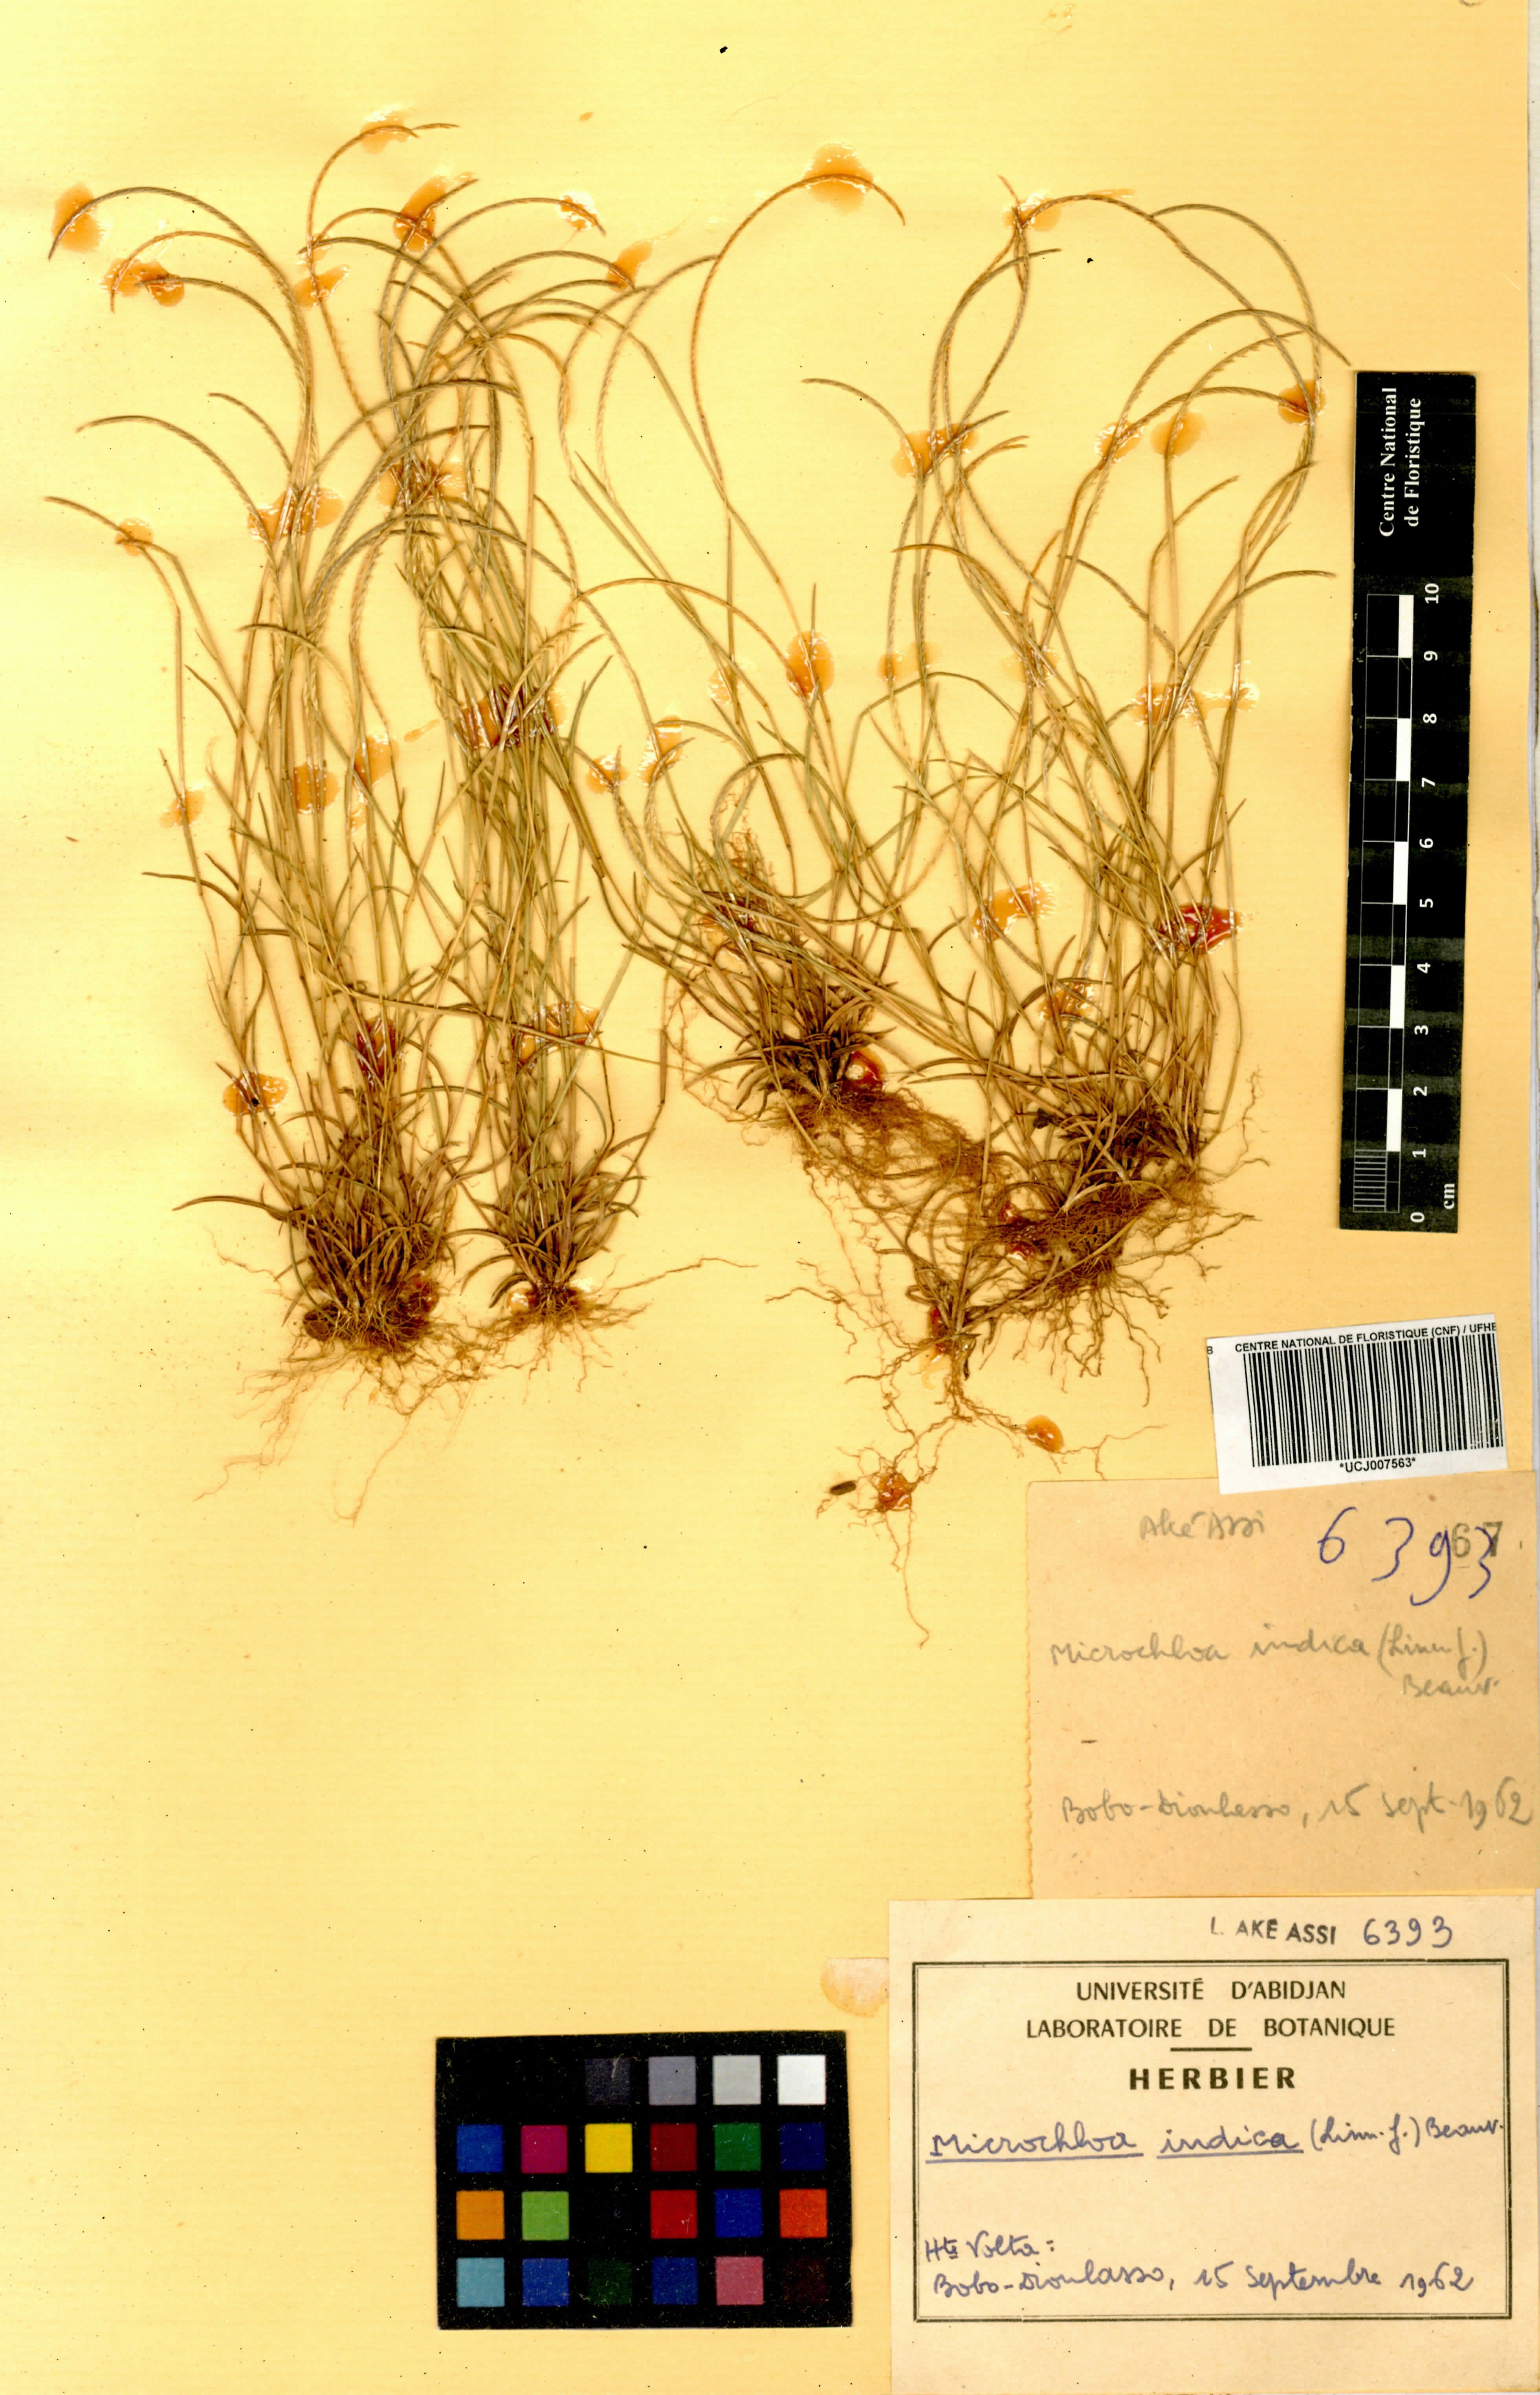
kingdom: Plantae
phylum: Tracheophyta
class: Liliopsida
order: Poales
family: Poaceae
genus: Microchloa
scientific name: Microchloa indica
